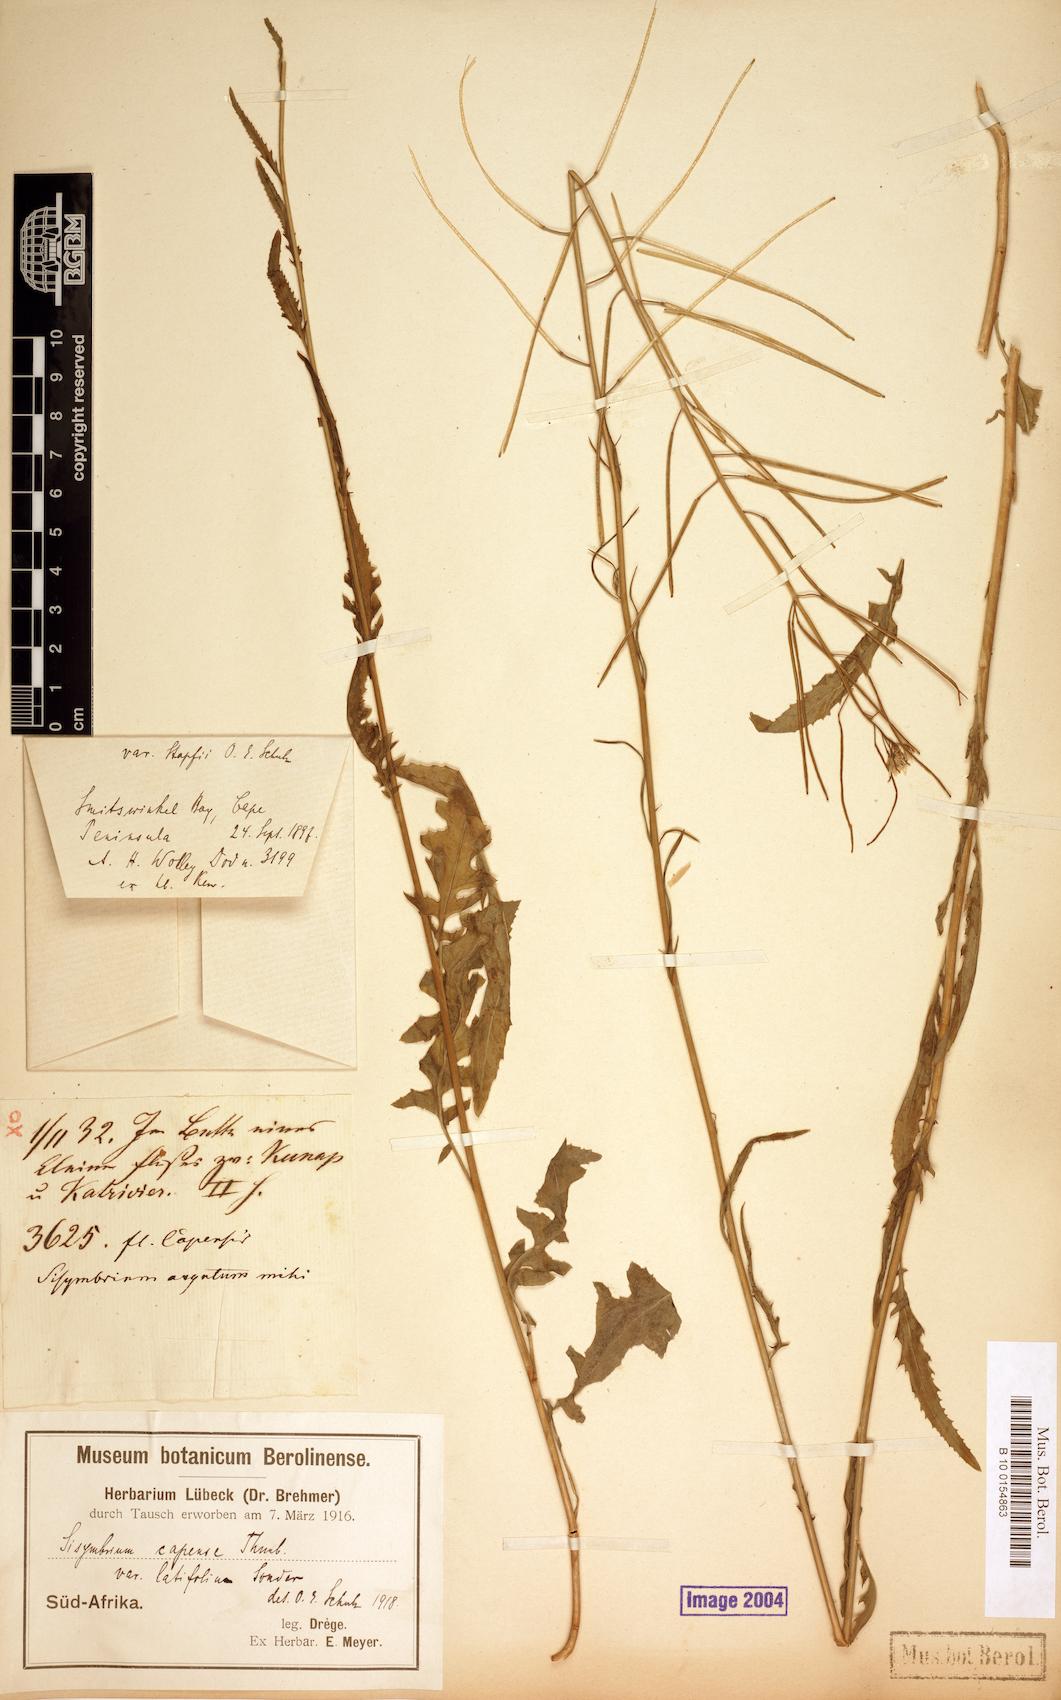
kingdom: Plantae
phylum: Tracheophyta
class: Magnoliopsida
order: Brassicales
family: Brassicaceae
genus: Sisymbrium
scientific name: Sisymbrium capense
